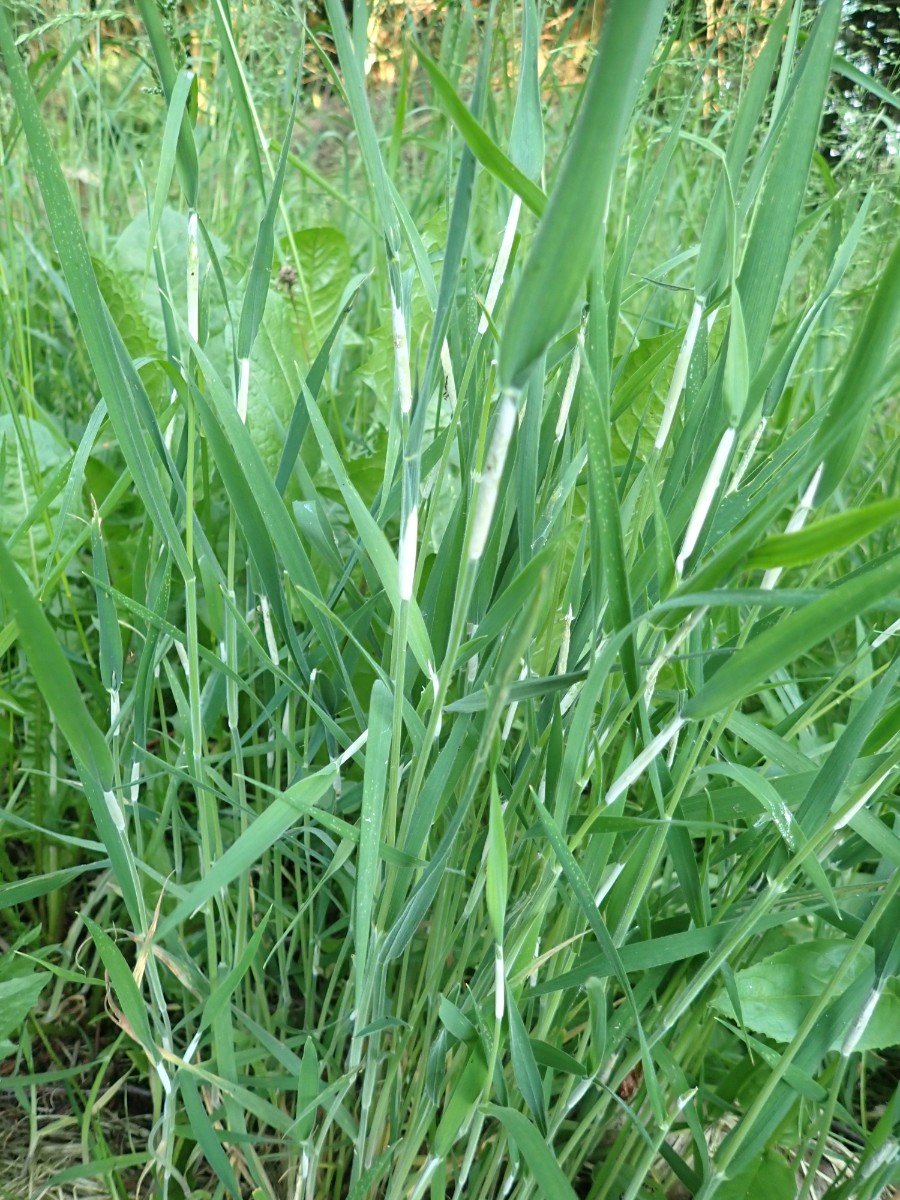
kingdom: Fungi
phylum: Ascomycota
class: Sordariomycetes
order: Hypocreales
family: Clavicipitaceae
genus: Epichloe
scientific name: Epichloe clarkii
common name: fløjlsgræs-kernerør
